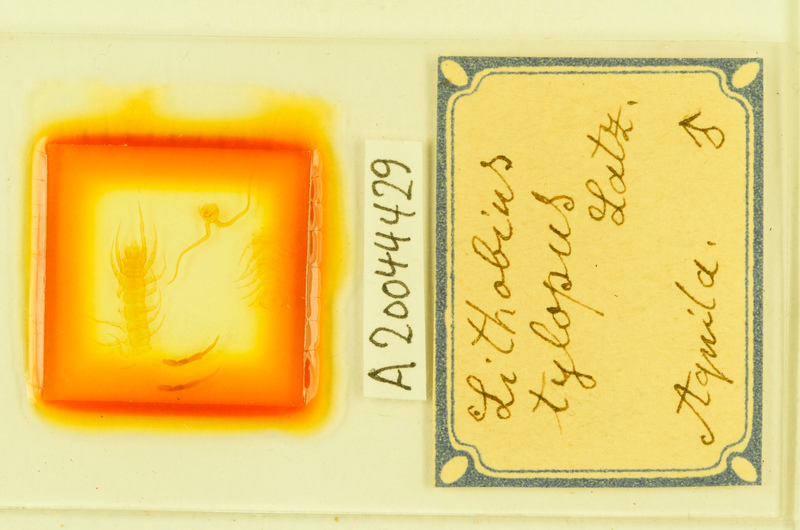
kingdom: Animalia
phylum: Arthropoda
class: Chilopoda
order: Lithobiomorpha
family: Lithobiidae
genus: Lithobius
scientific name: Lithobius tylopus
